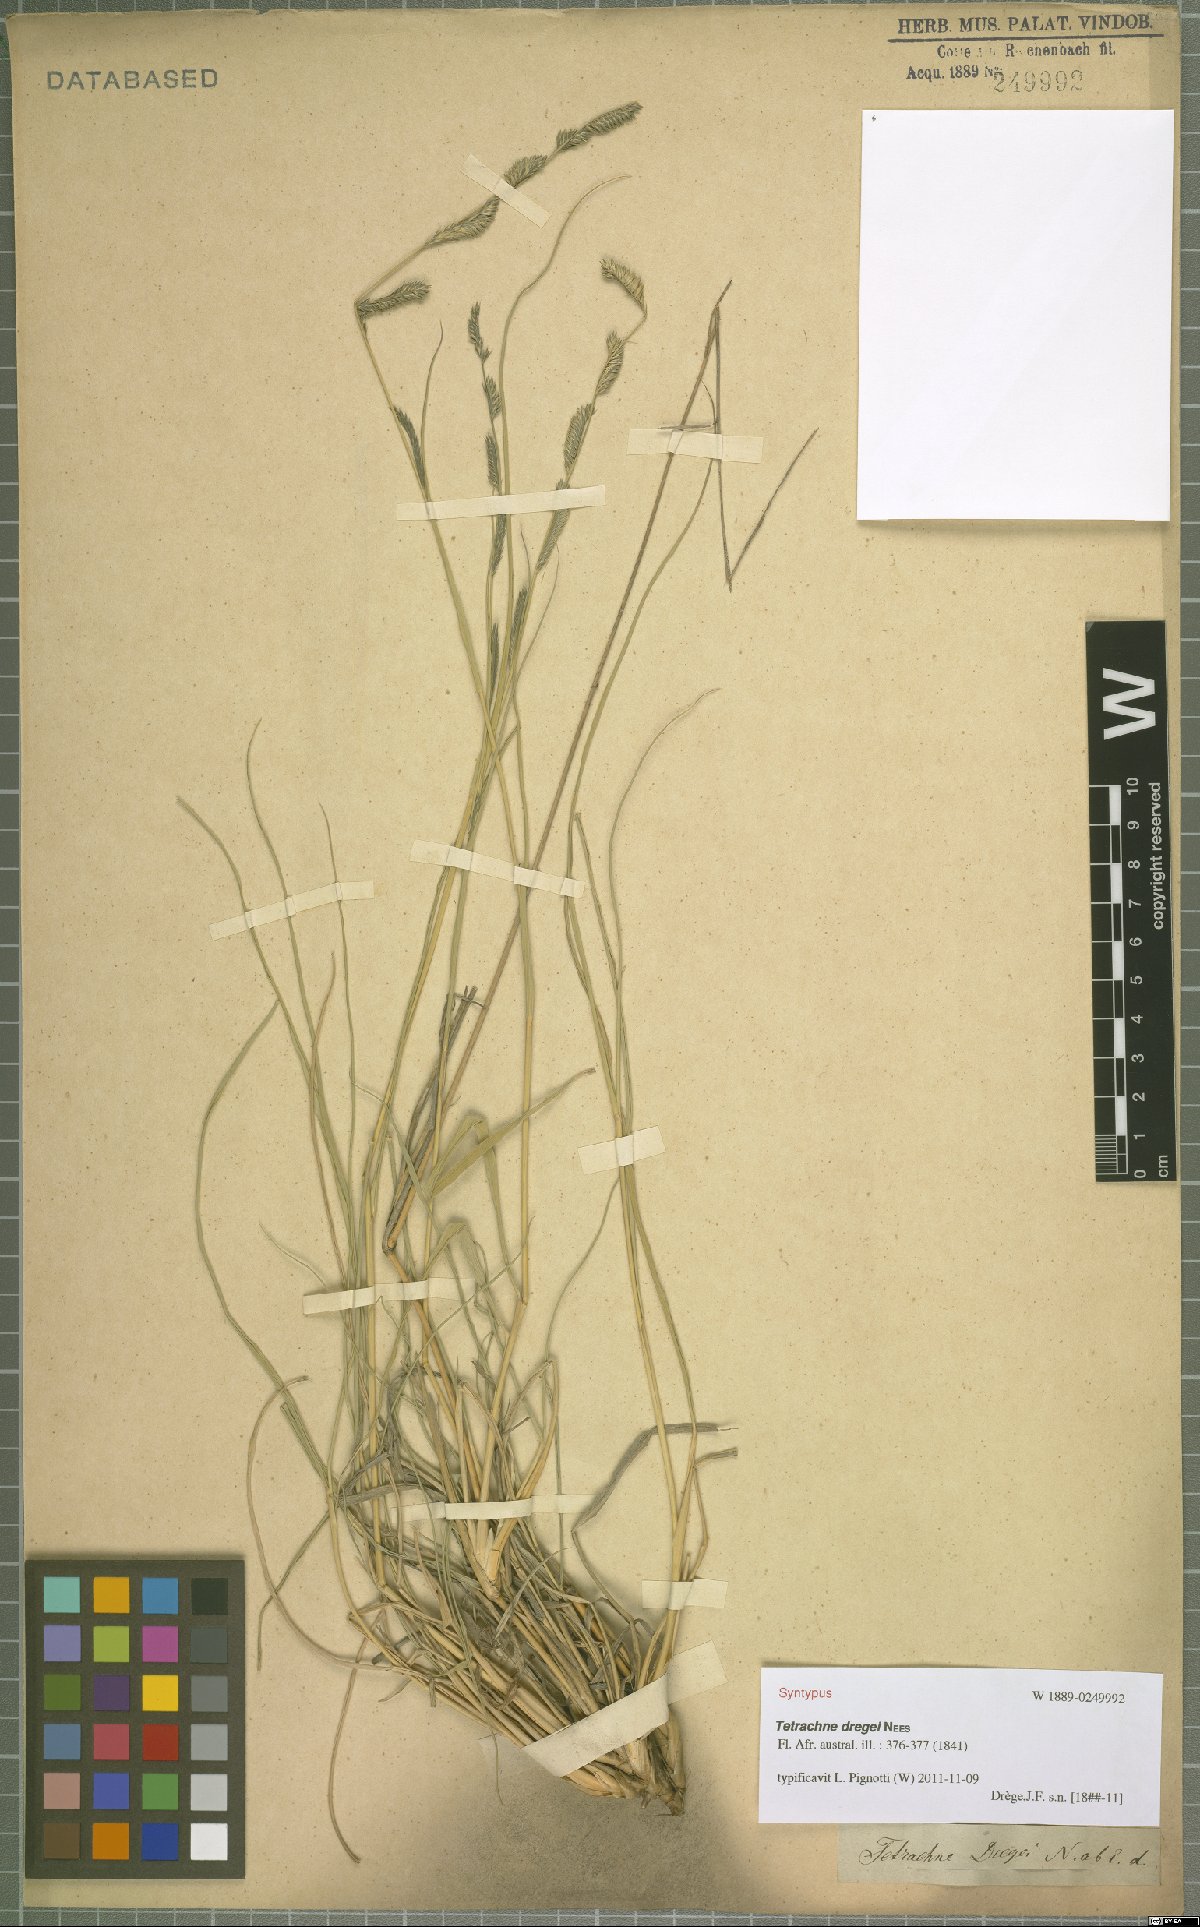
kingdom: Plantae
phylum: Tracheophyta
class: Liliopsida
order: Poales
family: Poaceae
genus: Tetrachne
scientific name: Tetrachne dregei
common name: Robies cocksfoot
